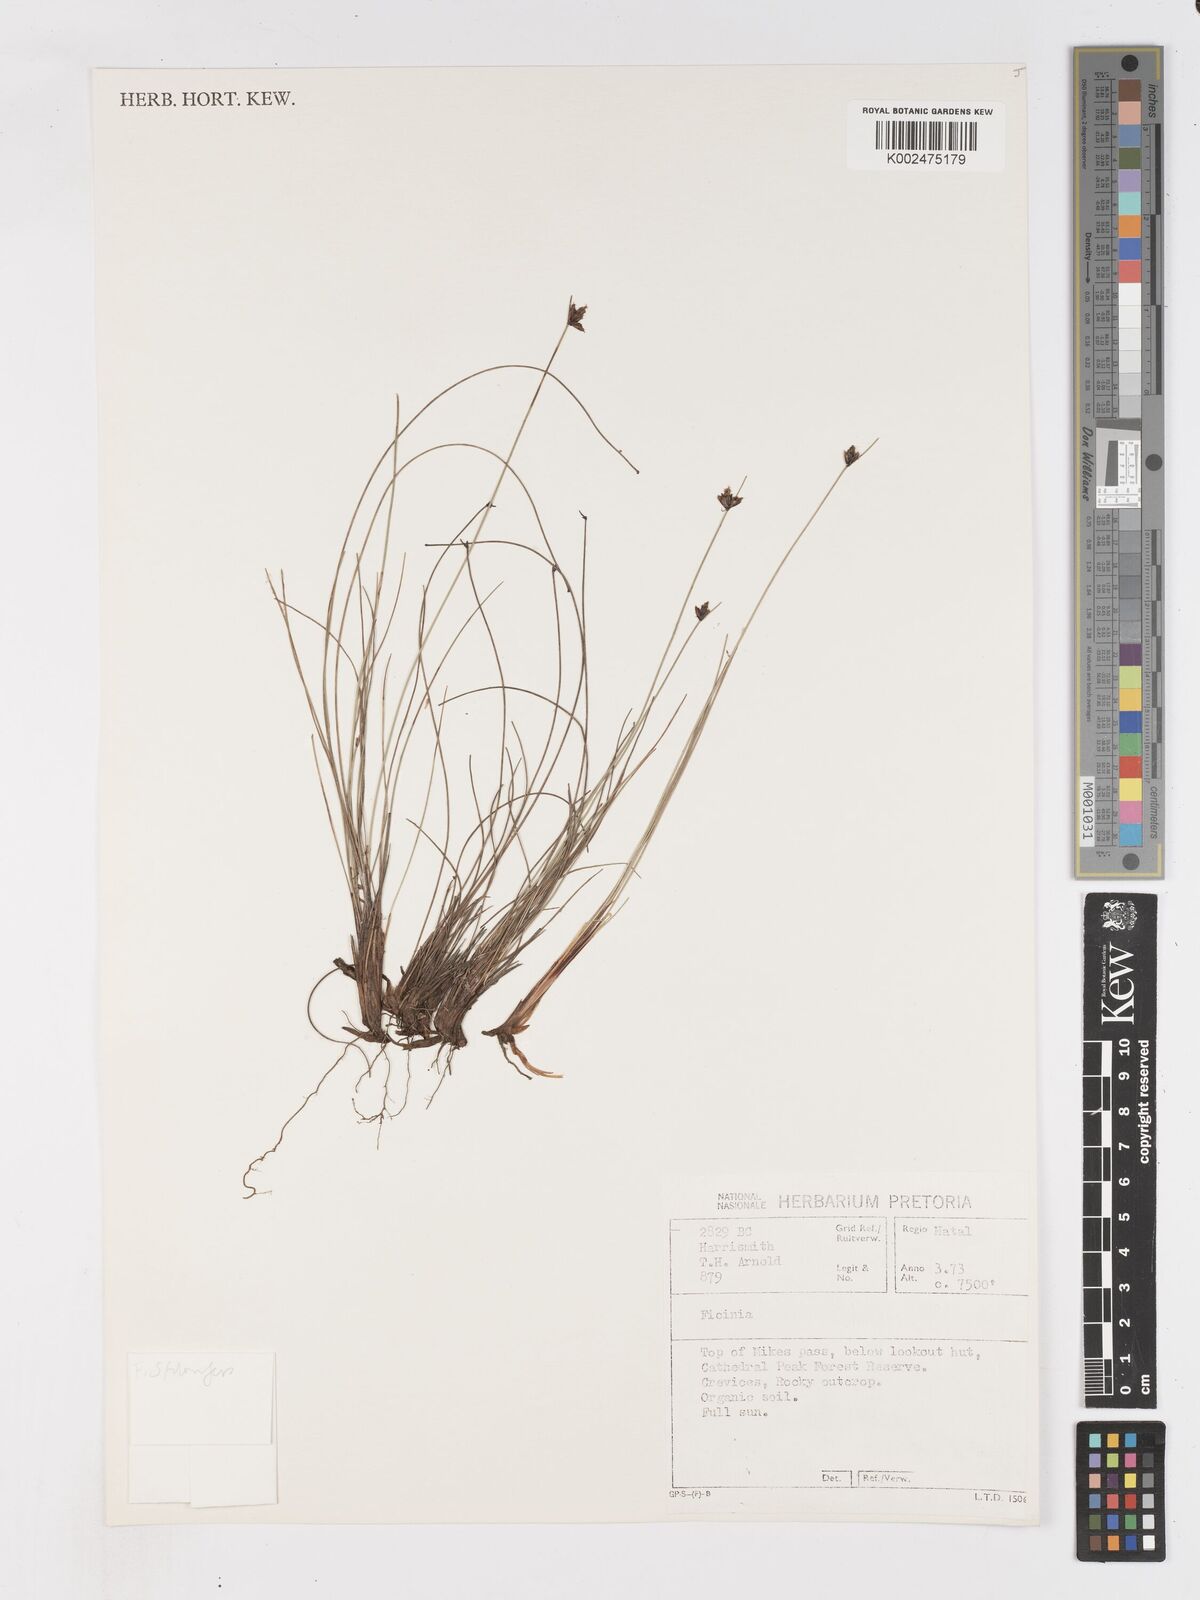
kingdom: Plantae
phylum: Tracheophyta
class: Liliopsida
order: Poales
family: Cyperaceae
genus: Ficinia
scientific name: Ficinia stolonifera
